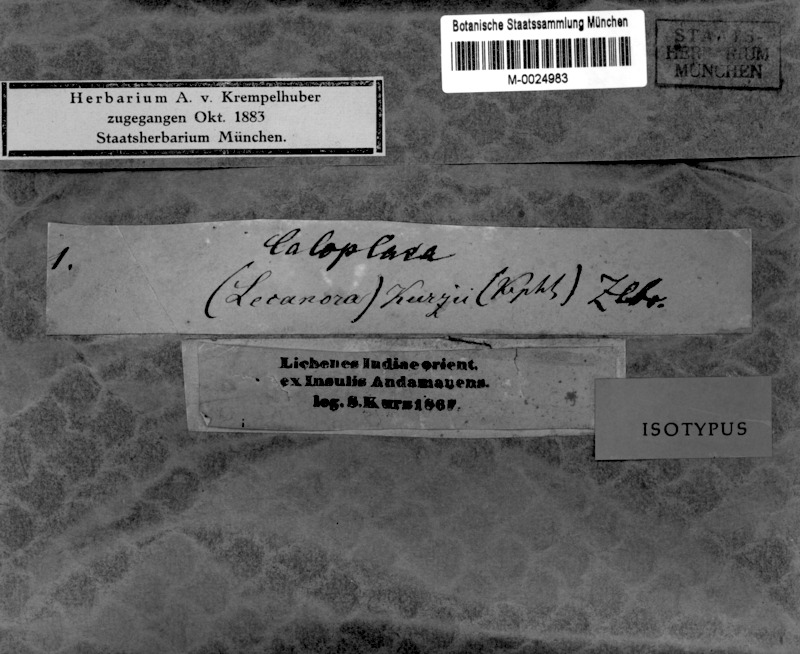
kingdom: Fungi
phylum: Ascomycota
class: Lecanoromycetes
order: Teloschistales
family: Teloschistaceae
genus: Caloplaca
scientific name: Caloplaca kurzii
